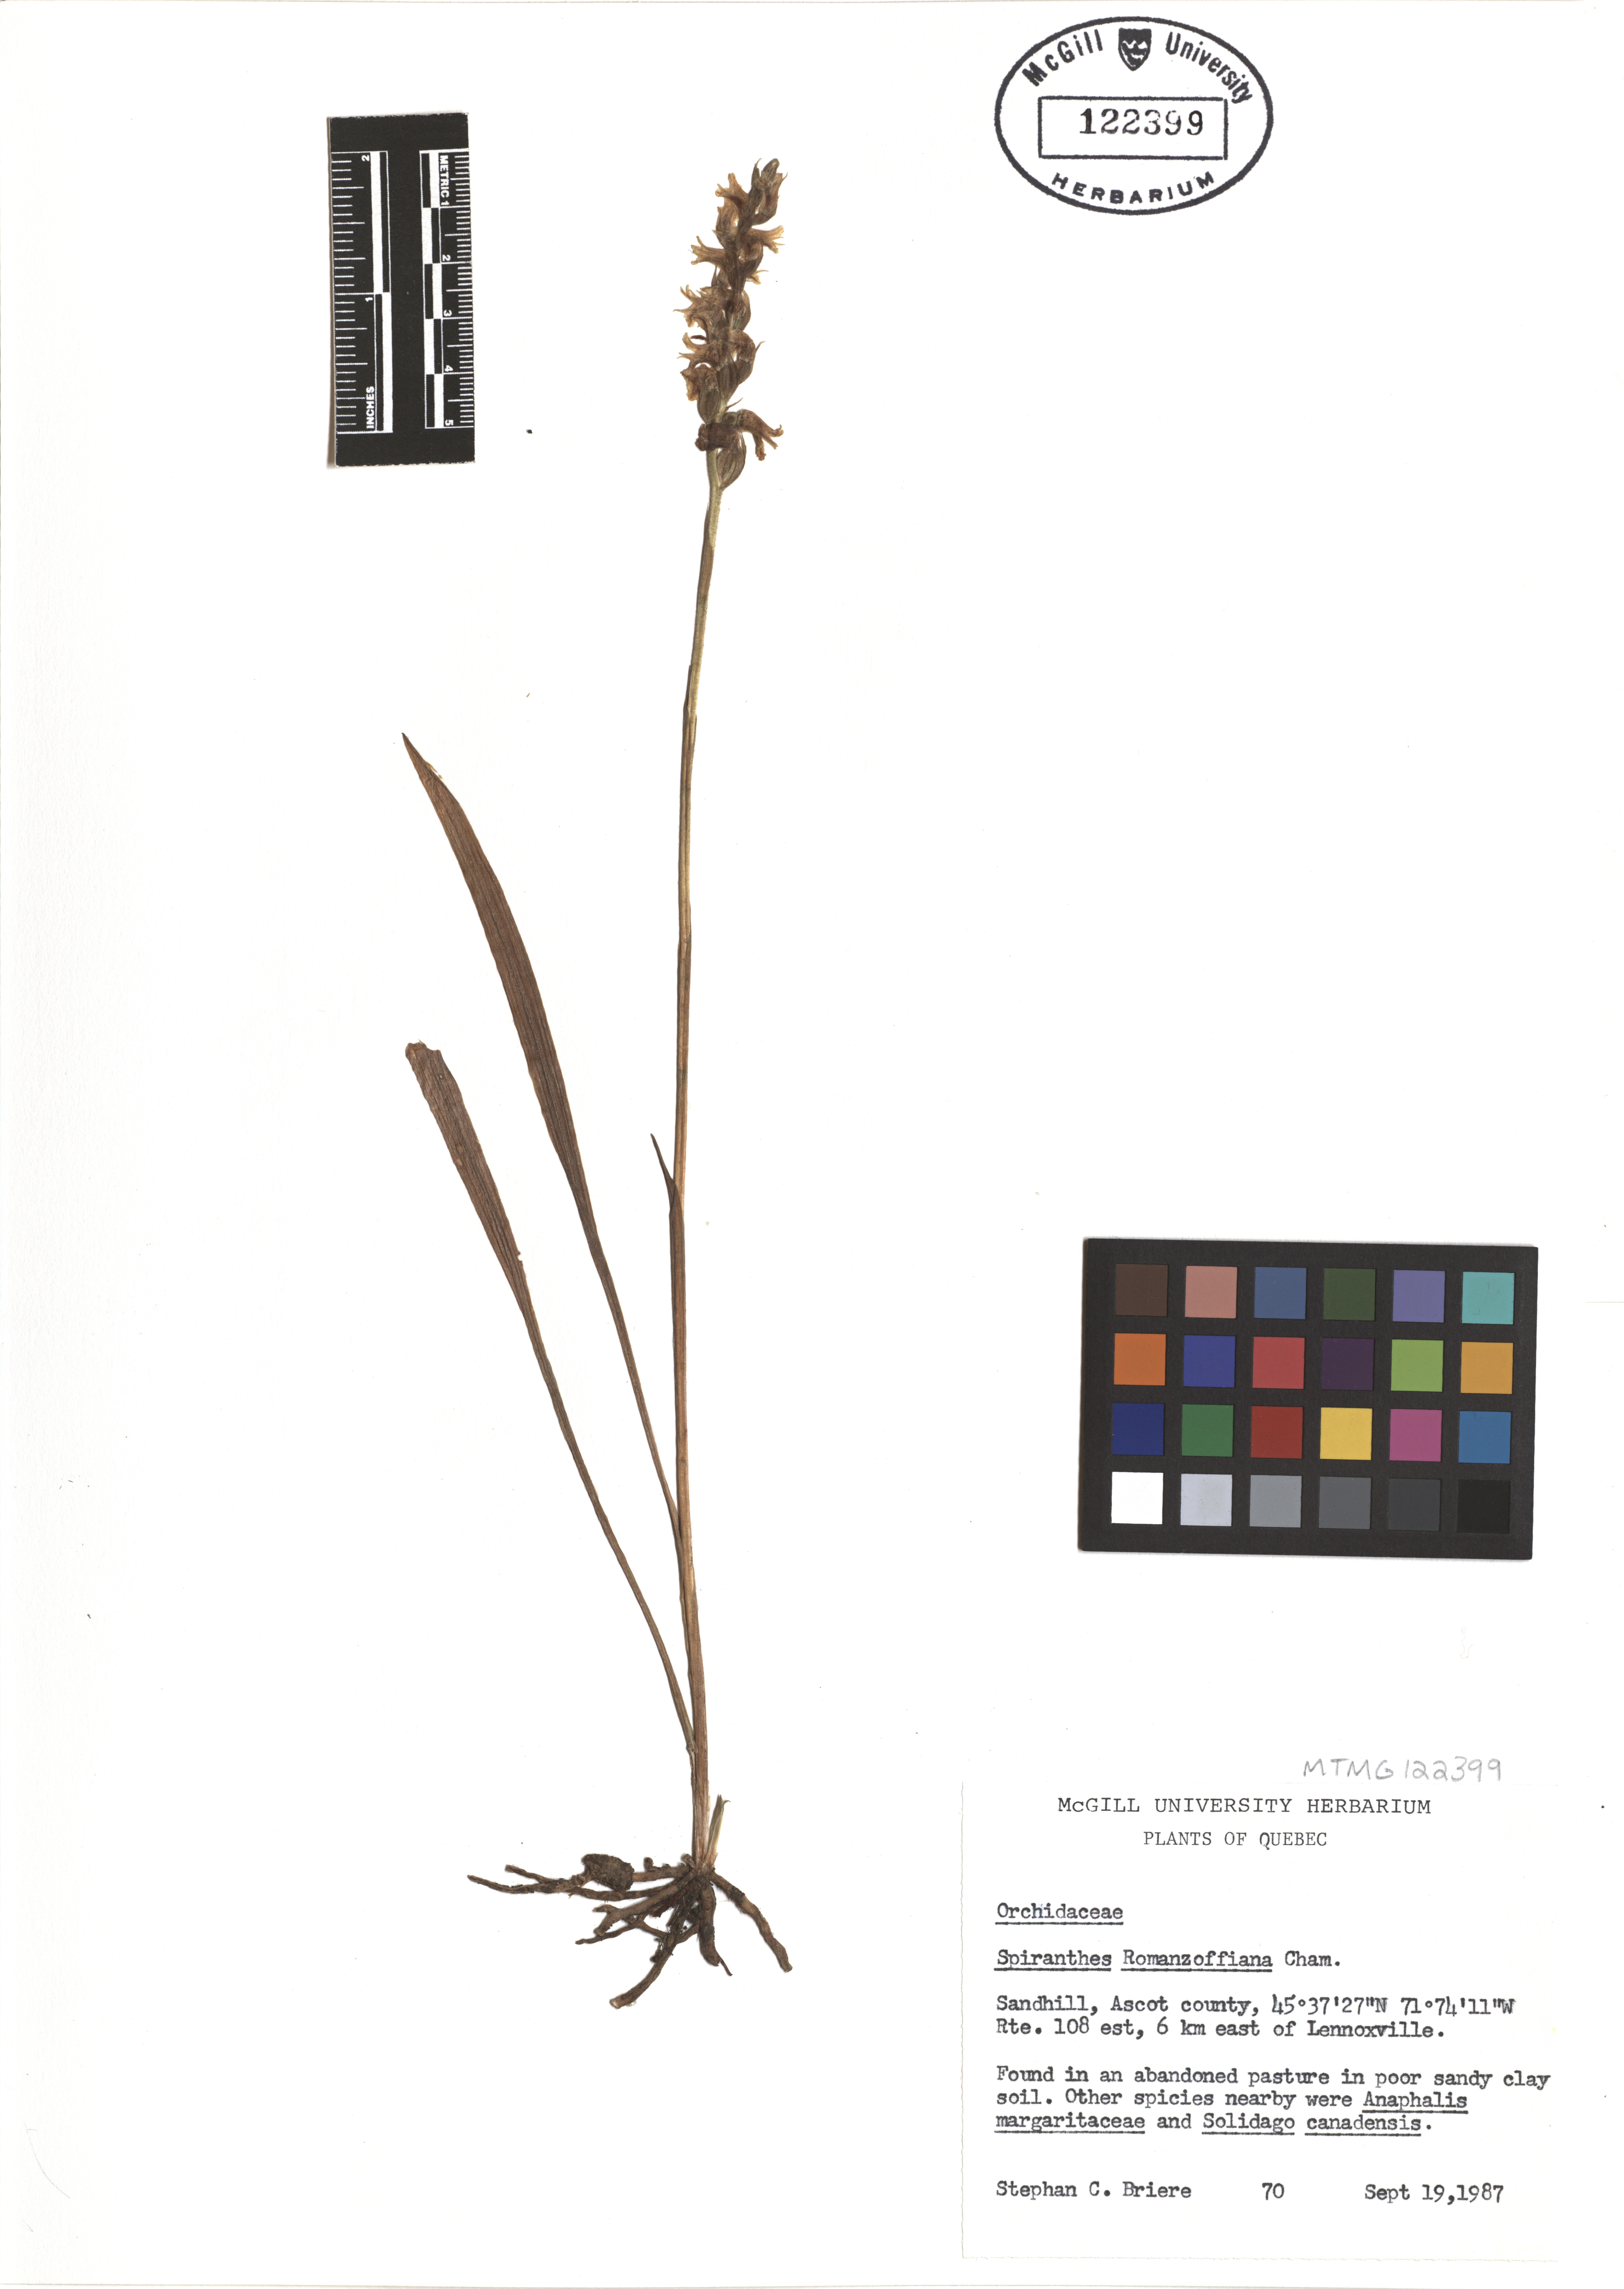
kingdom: Plantae
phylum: Tracheophyta
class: Liliopsida
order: Asparagales
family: Orchidaceae
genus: Spiranthes
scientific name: Spiranthes romanzoffiana
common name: Irish lady's-tresses
